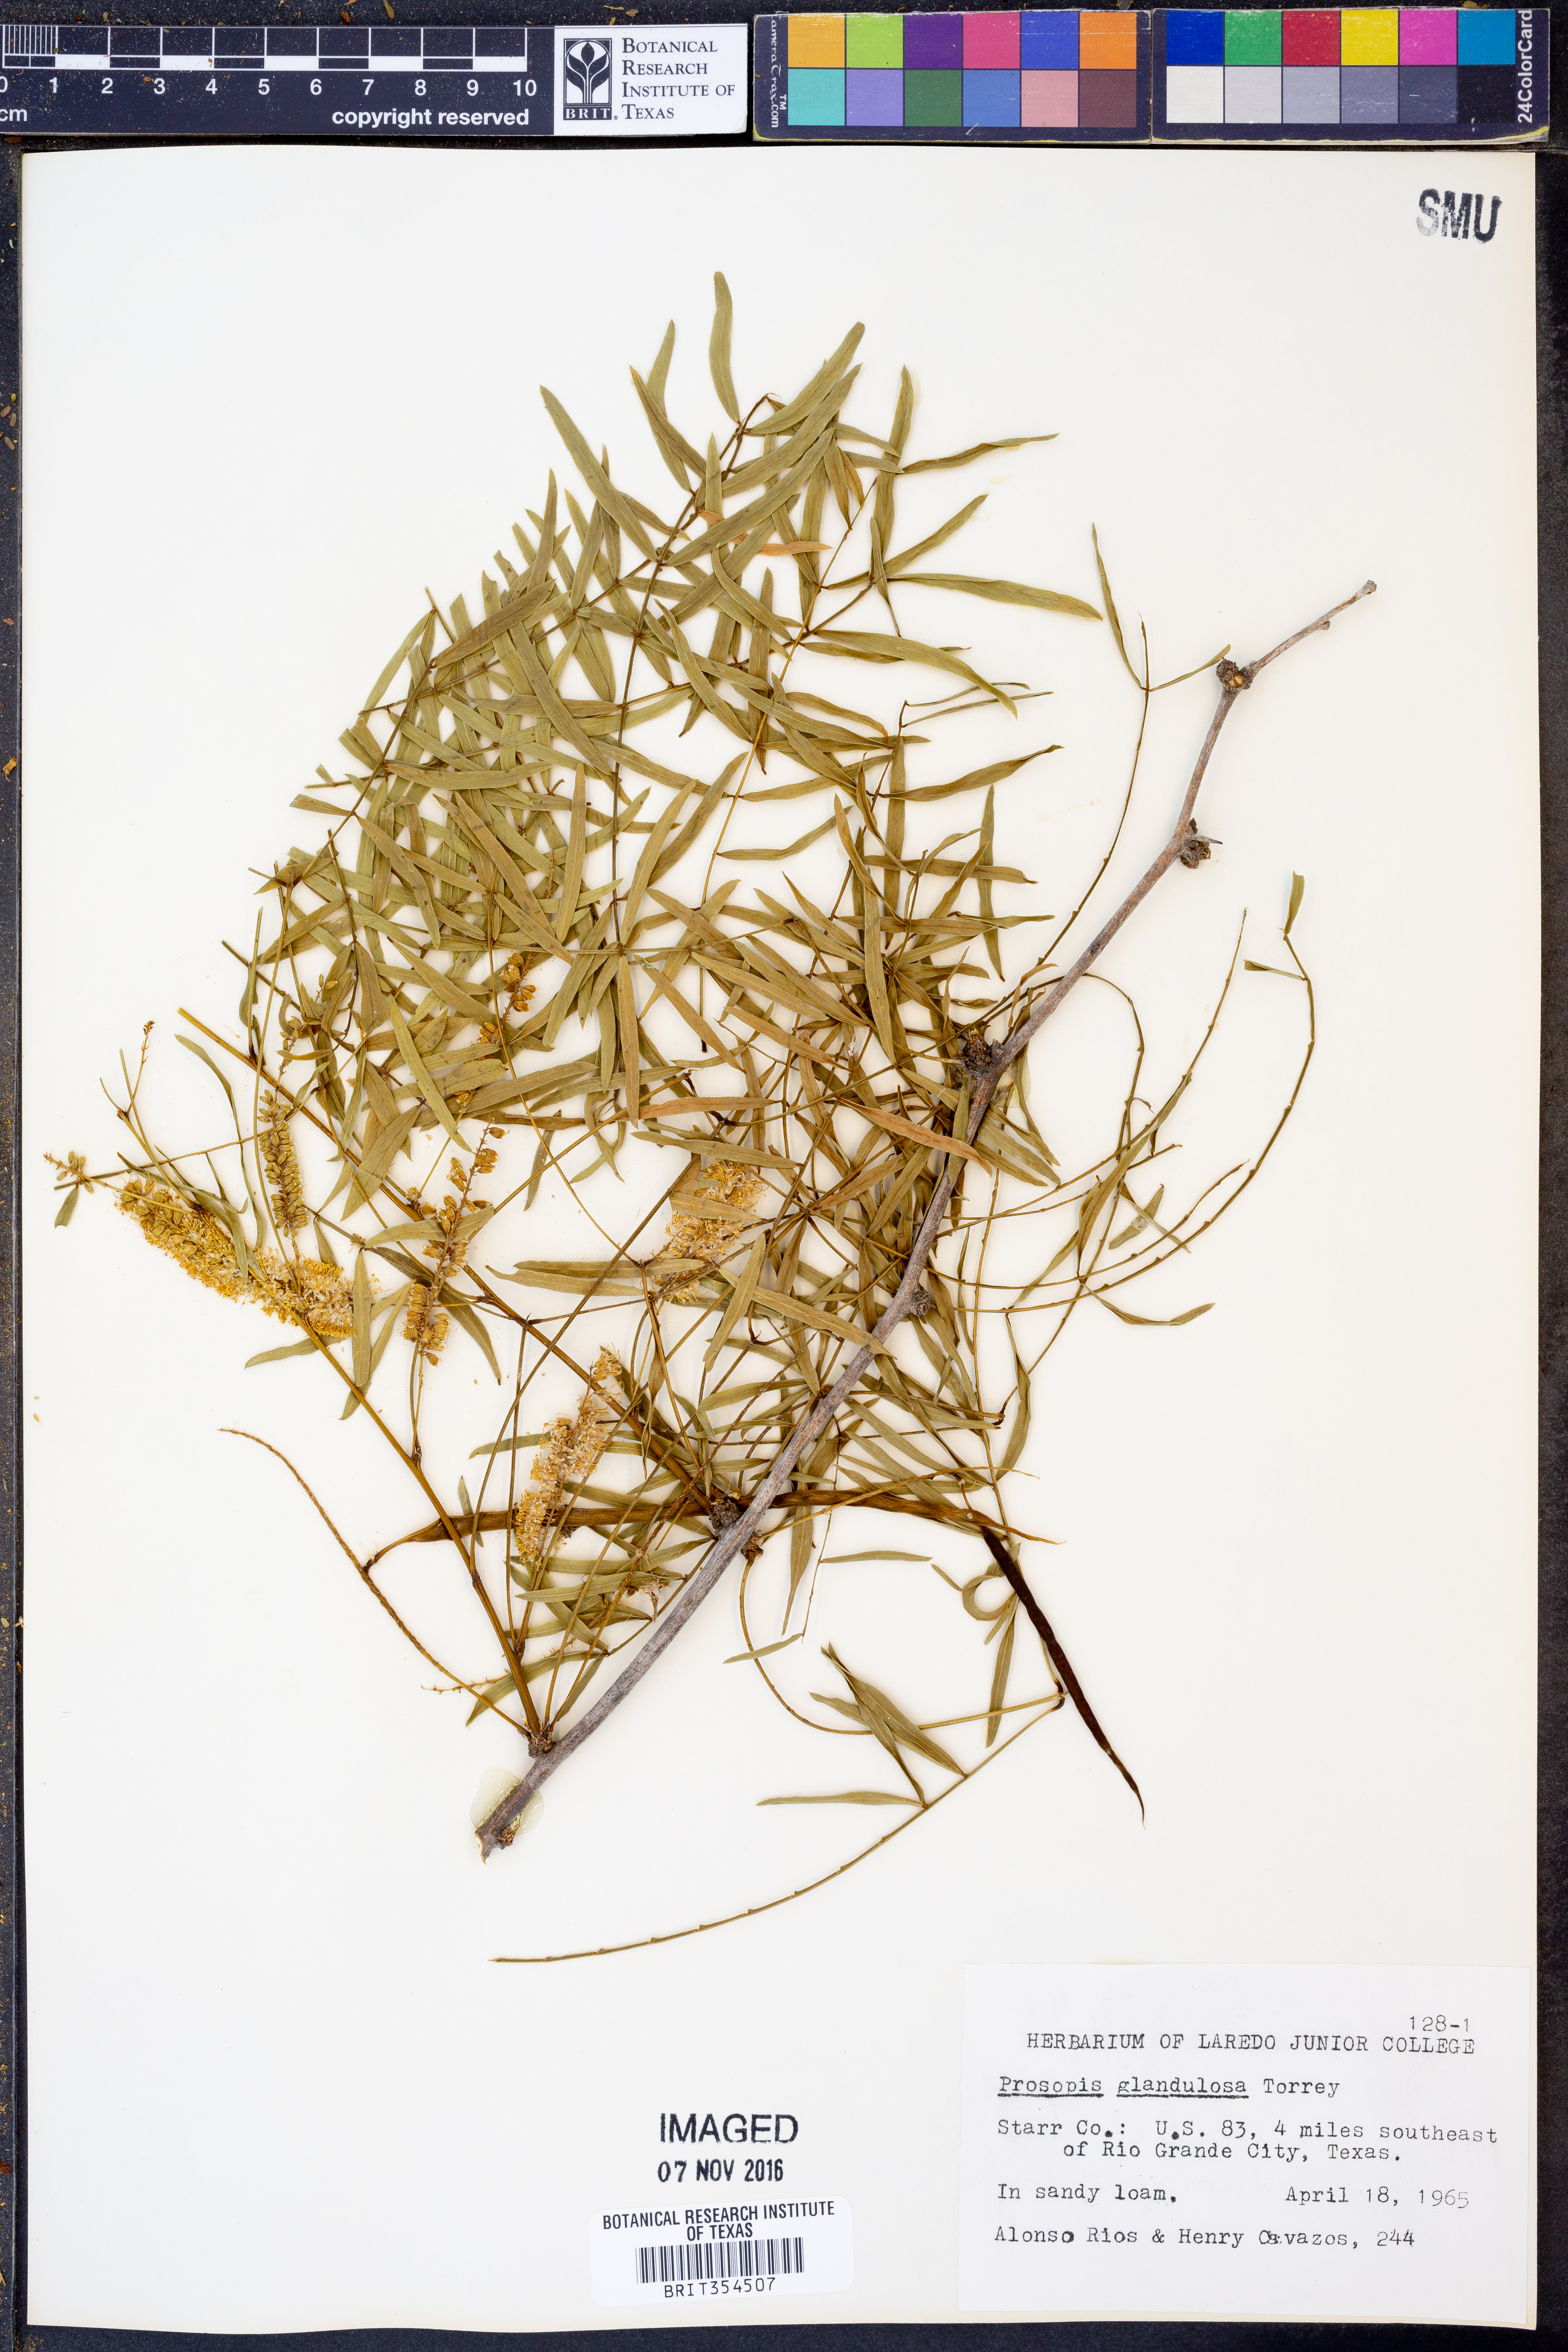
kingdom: Plantae
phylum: Tracheophyta
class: Magnoliopsida
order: Fabales
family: Fabaceae
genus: Prosopis
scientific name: Prosopis glandulosa
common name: Honey mesquite
